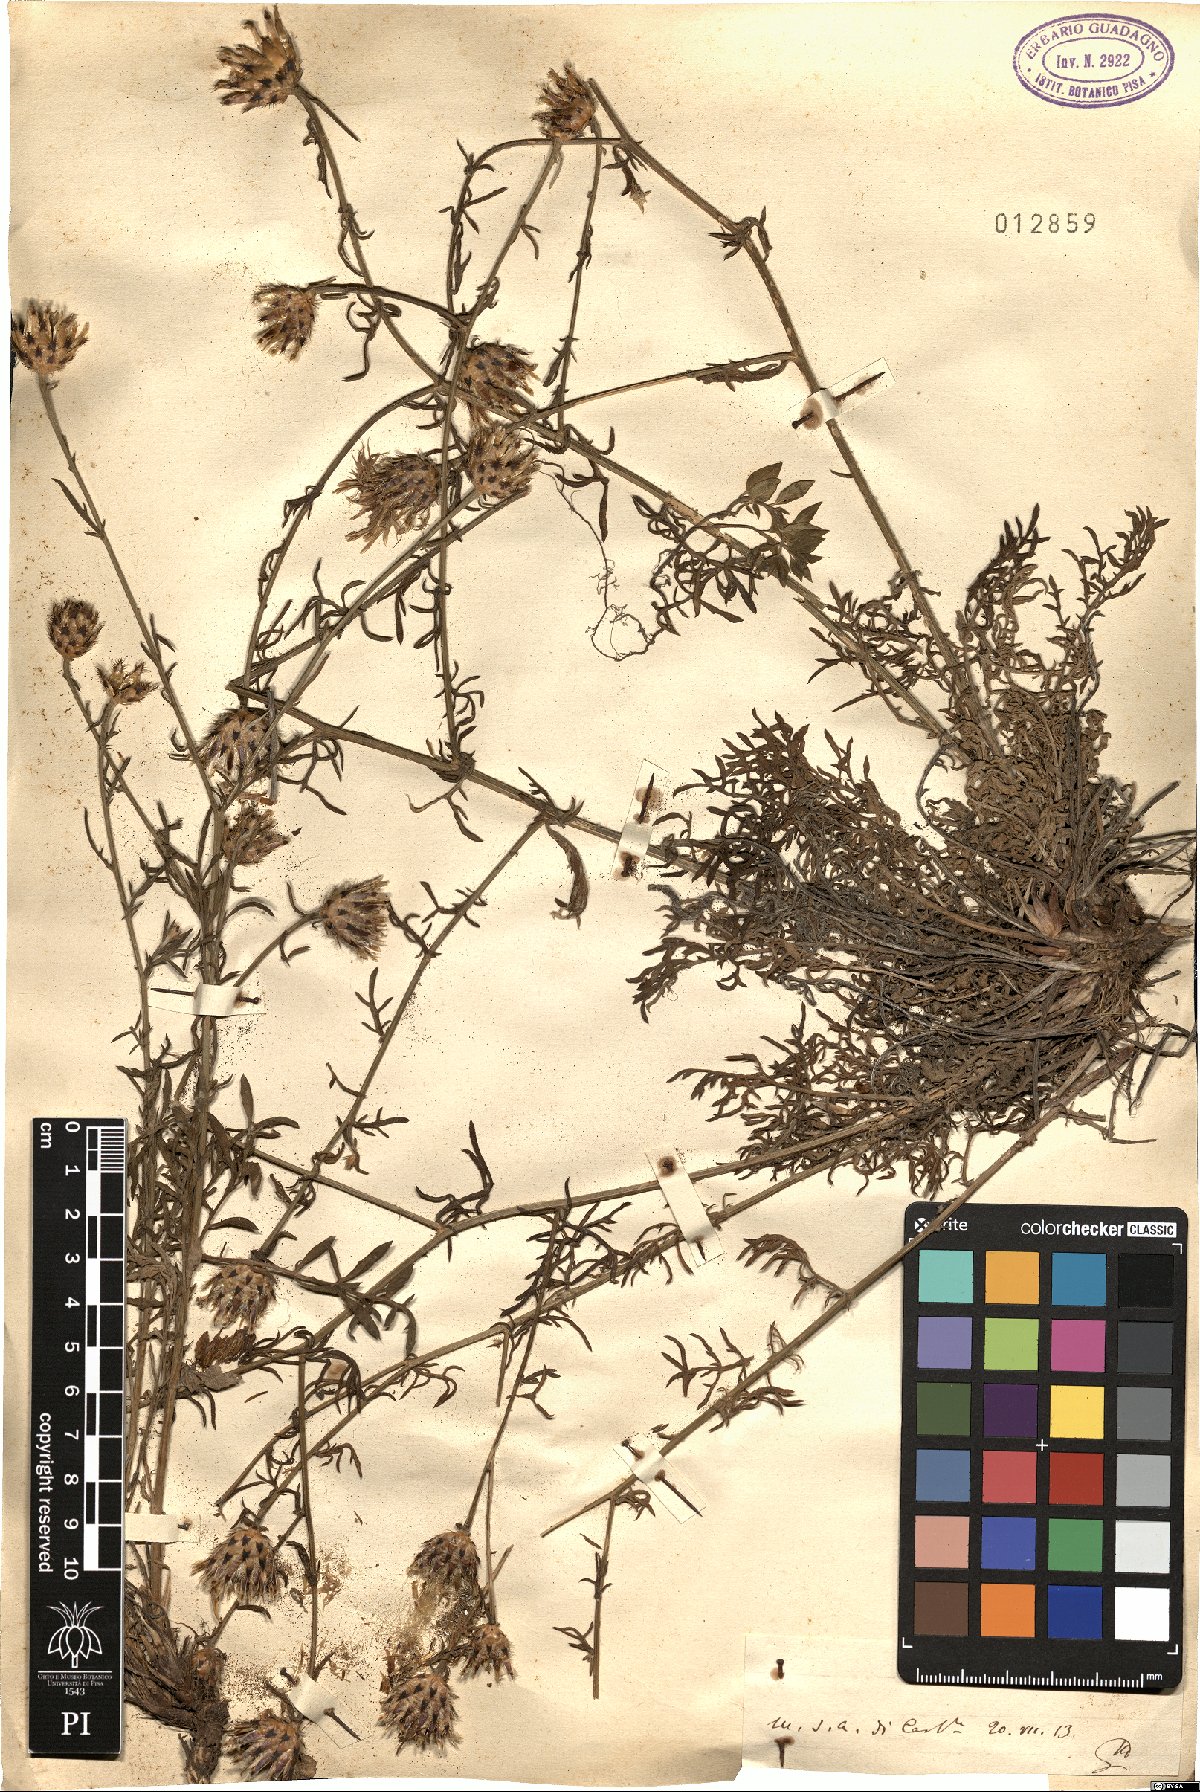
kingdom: Plantae
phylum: Tracheophyta
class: Magnoliopsida
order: Asterales
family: Asteraceae
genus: Centaurea
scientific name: Centaurea
